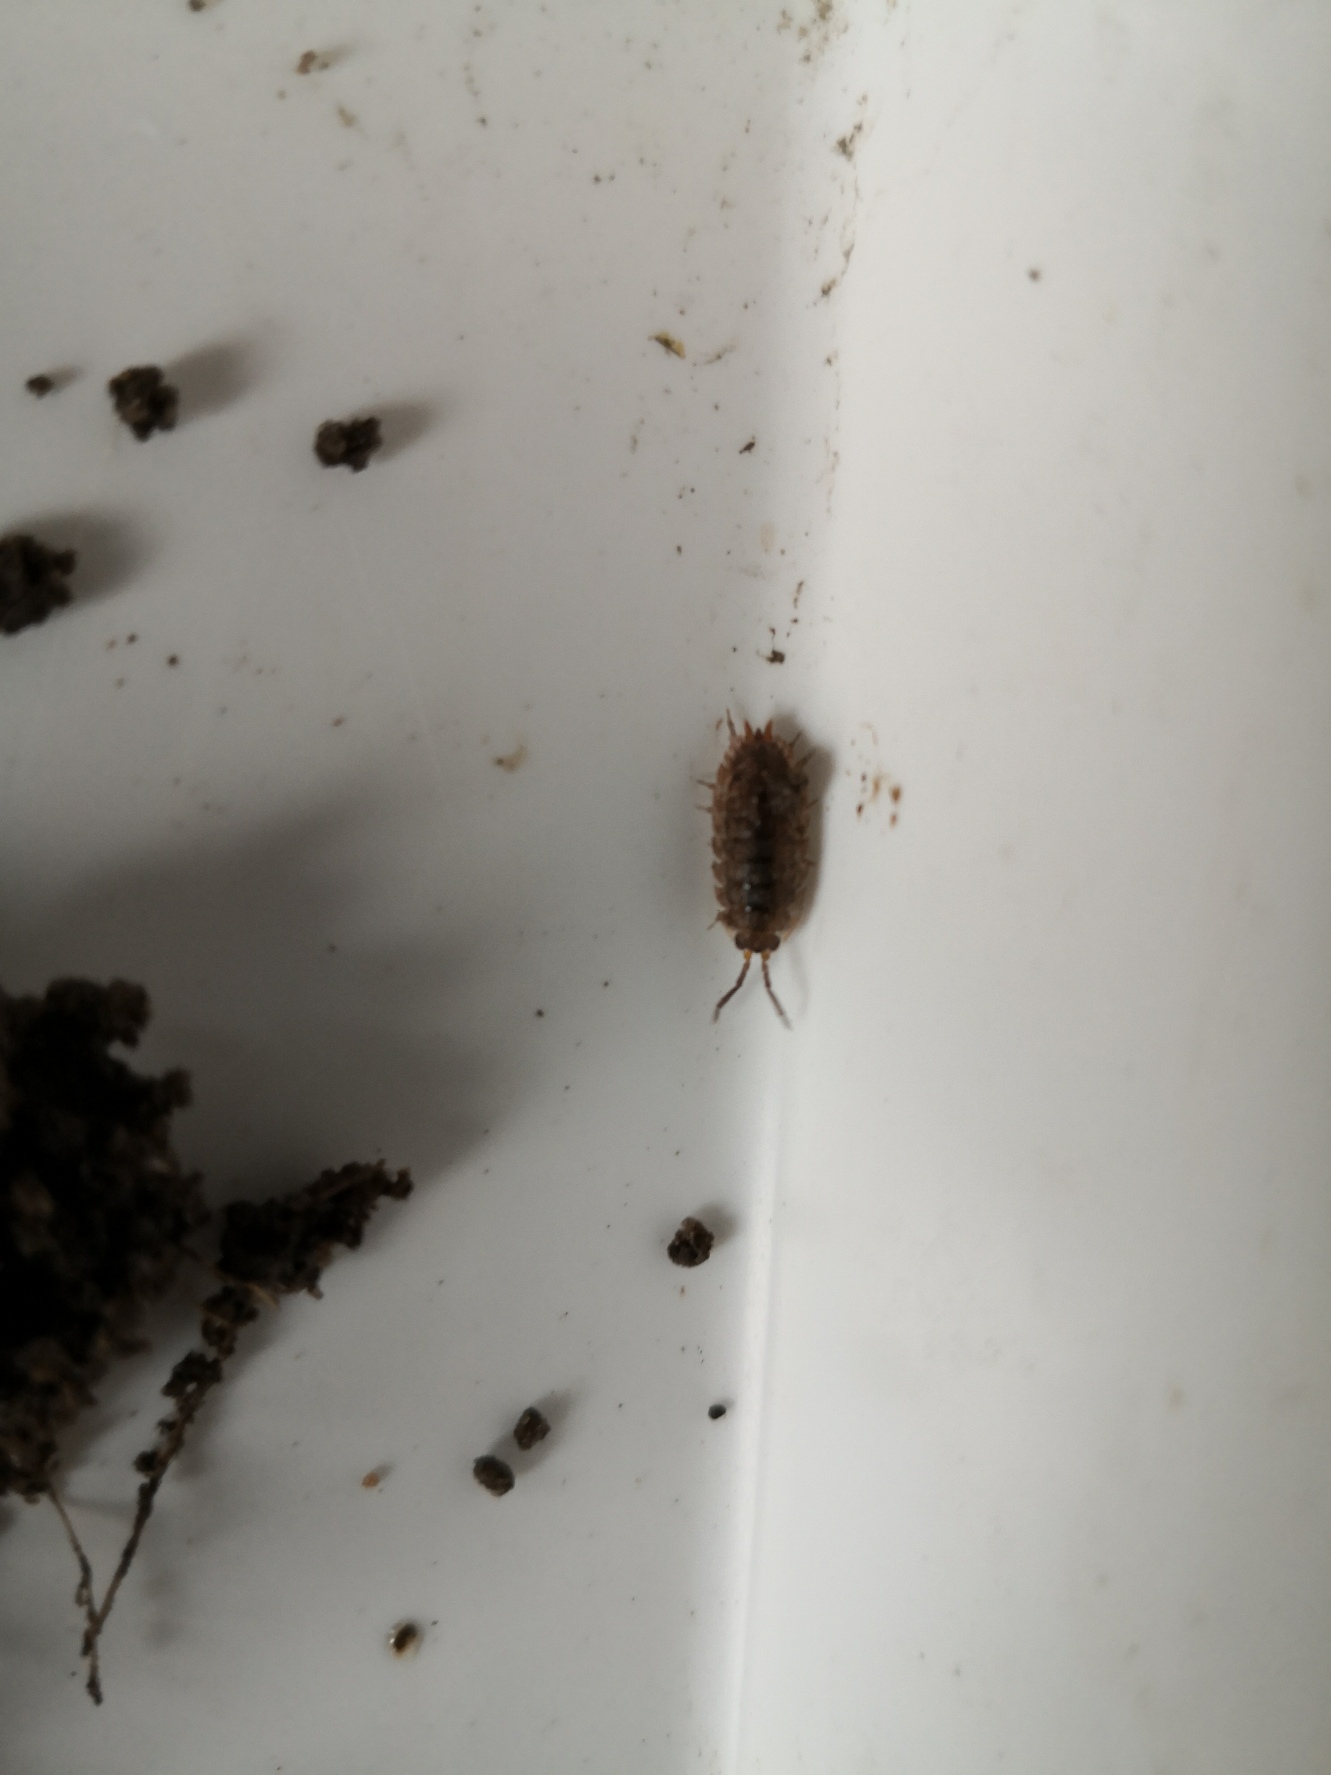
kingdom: Animalia
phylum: Arthropoda
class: Malacostraca
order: Isopoda
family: Porcellionidae
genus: Porcellio
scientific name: Porcellio scaber
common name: Grå bænkebider
